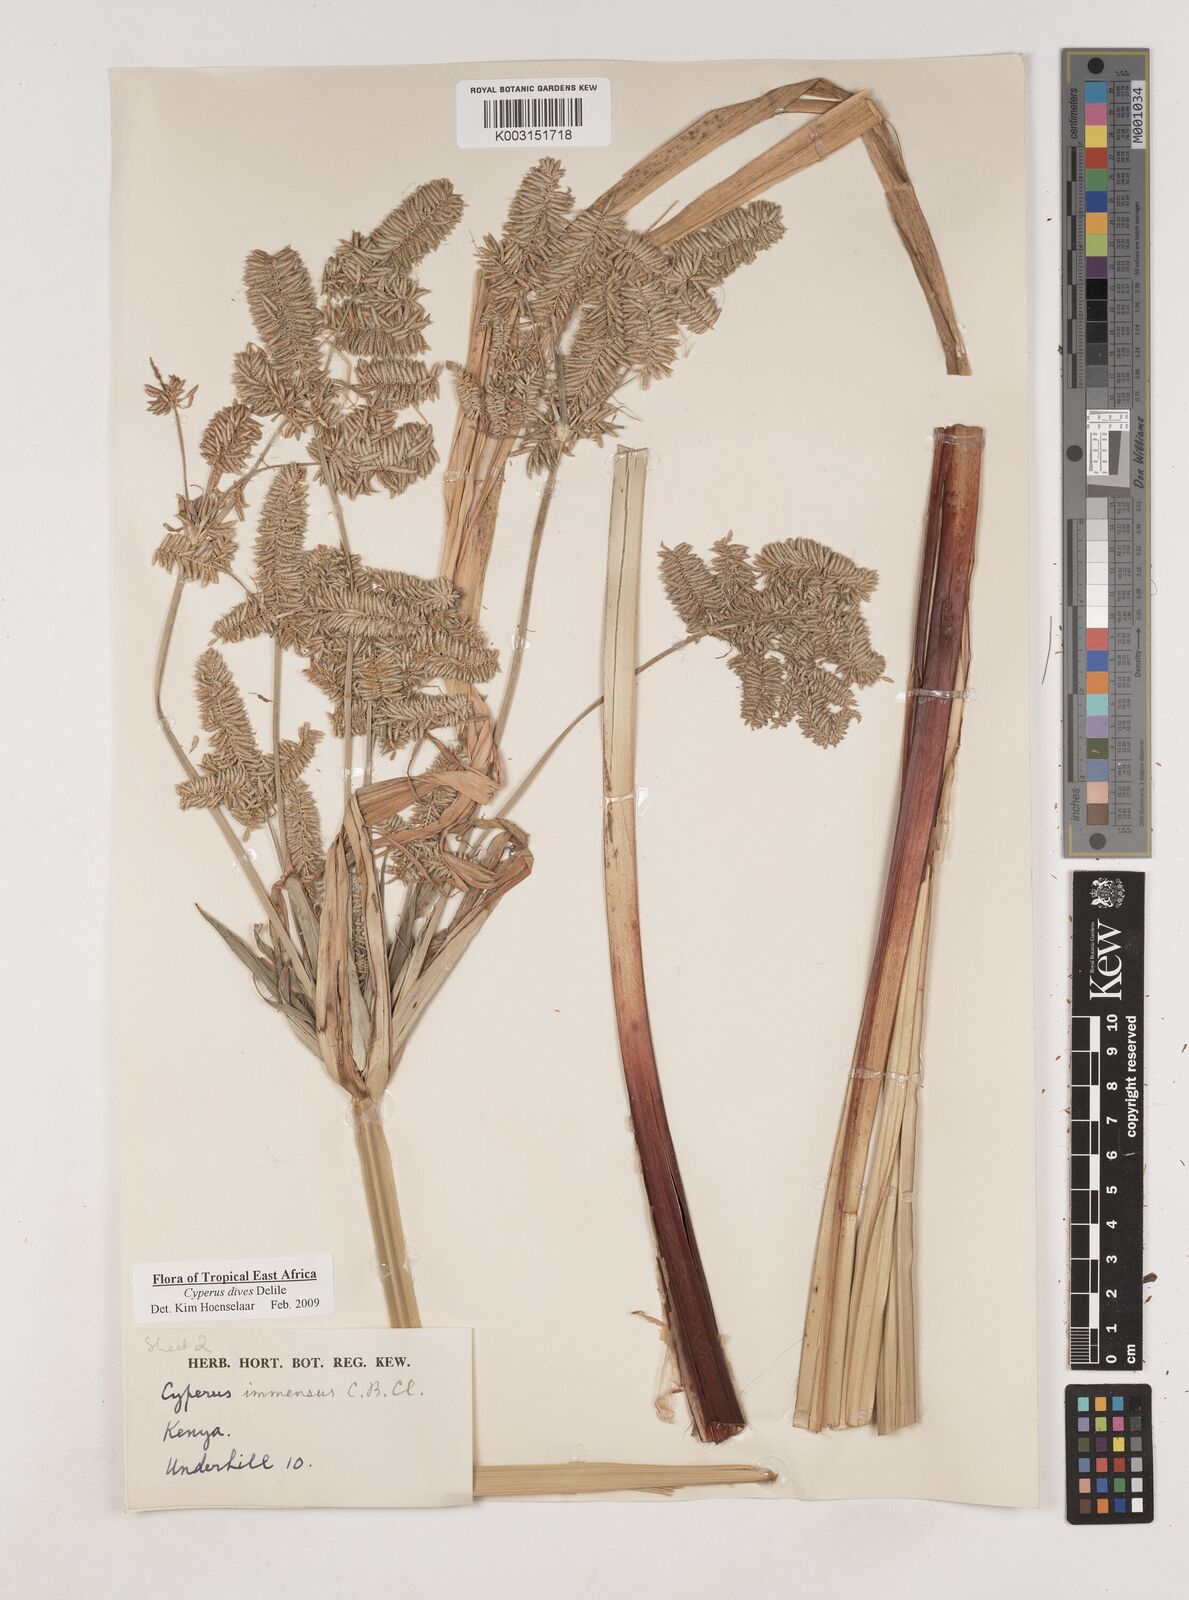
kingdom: Plantae
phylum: Tracheophyta
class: Liliopsida
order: Poales
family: Cyperaceae
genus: Cyperus
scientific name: Cyperus dives
